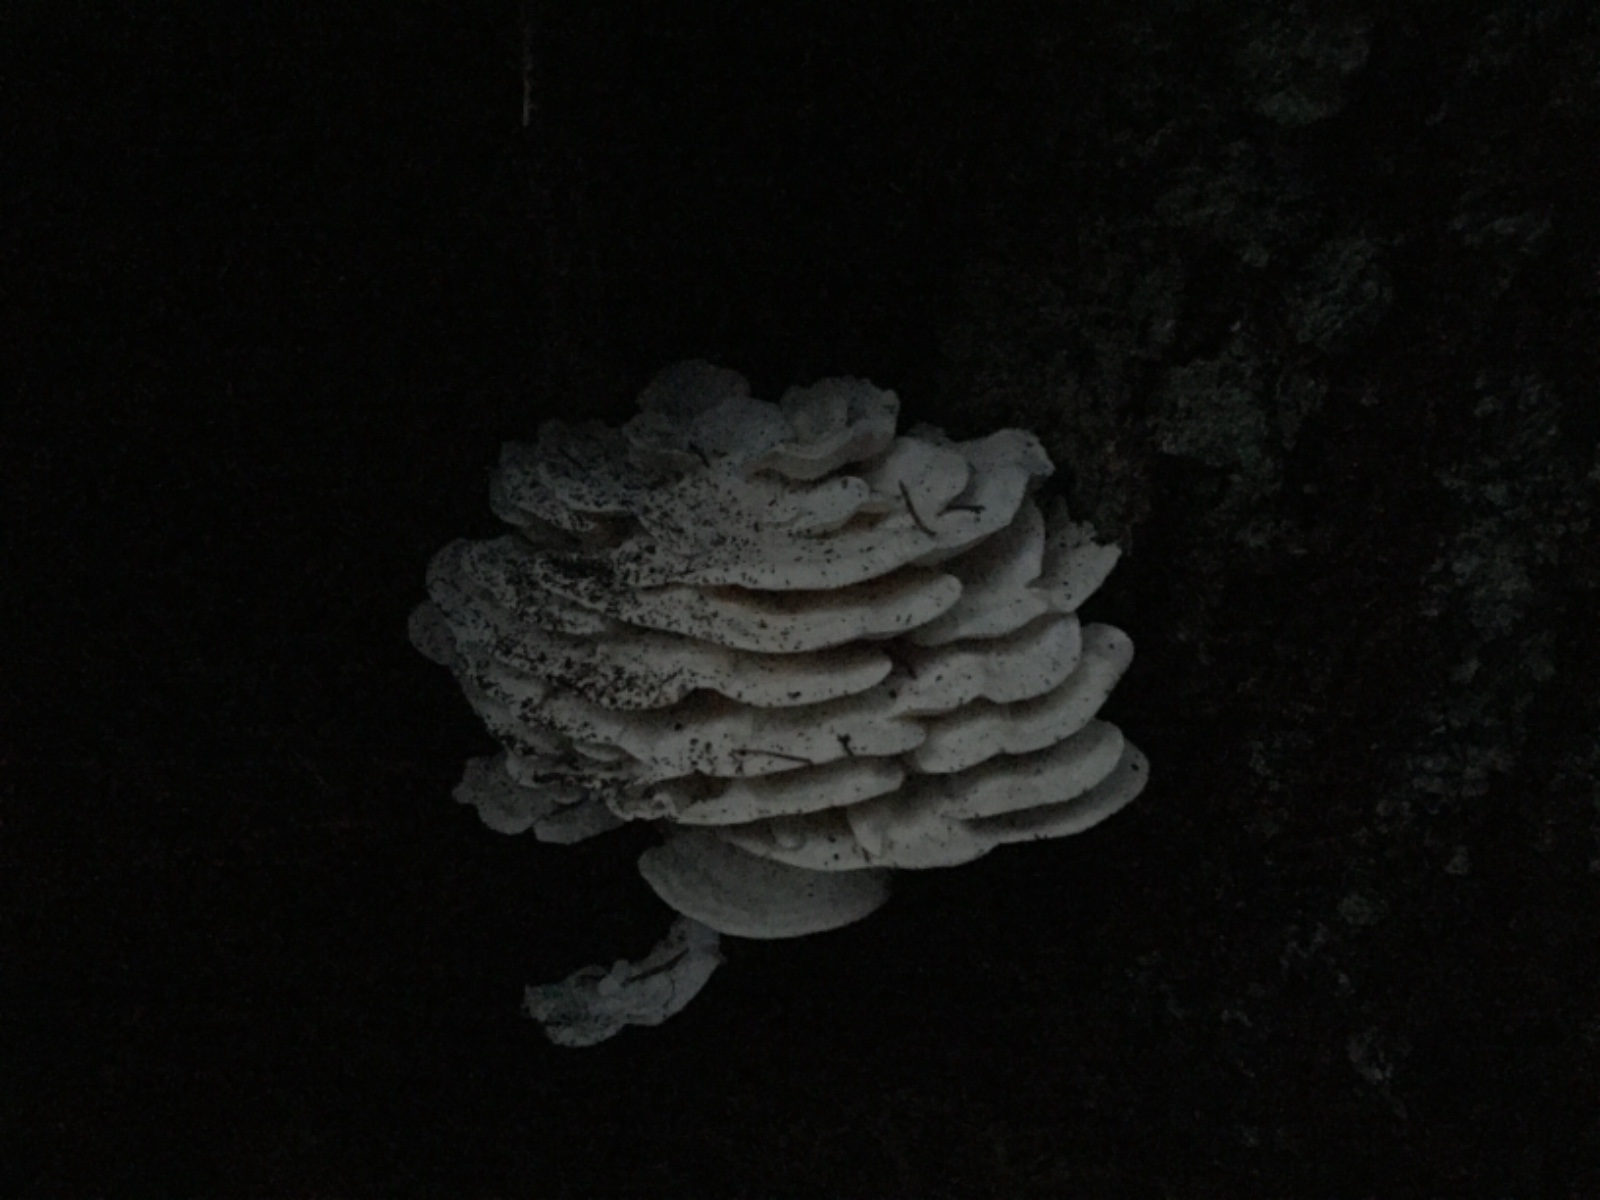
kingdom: Fungi
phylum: Basidiomycota
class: Agaricomycetes
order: Polyporales
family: Incrustoporiaceae
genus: Tyromyces
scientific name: Tyromyces lacteus
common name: mælkehvid kødporesvamp
